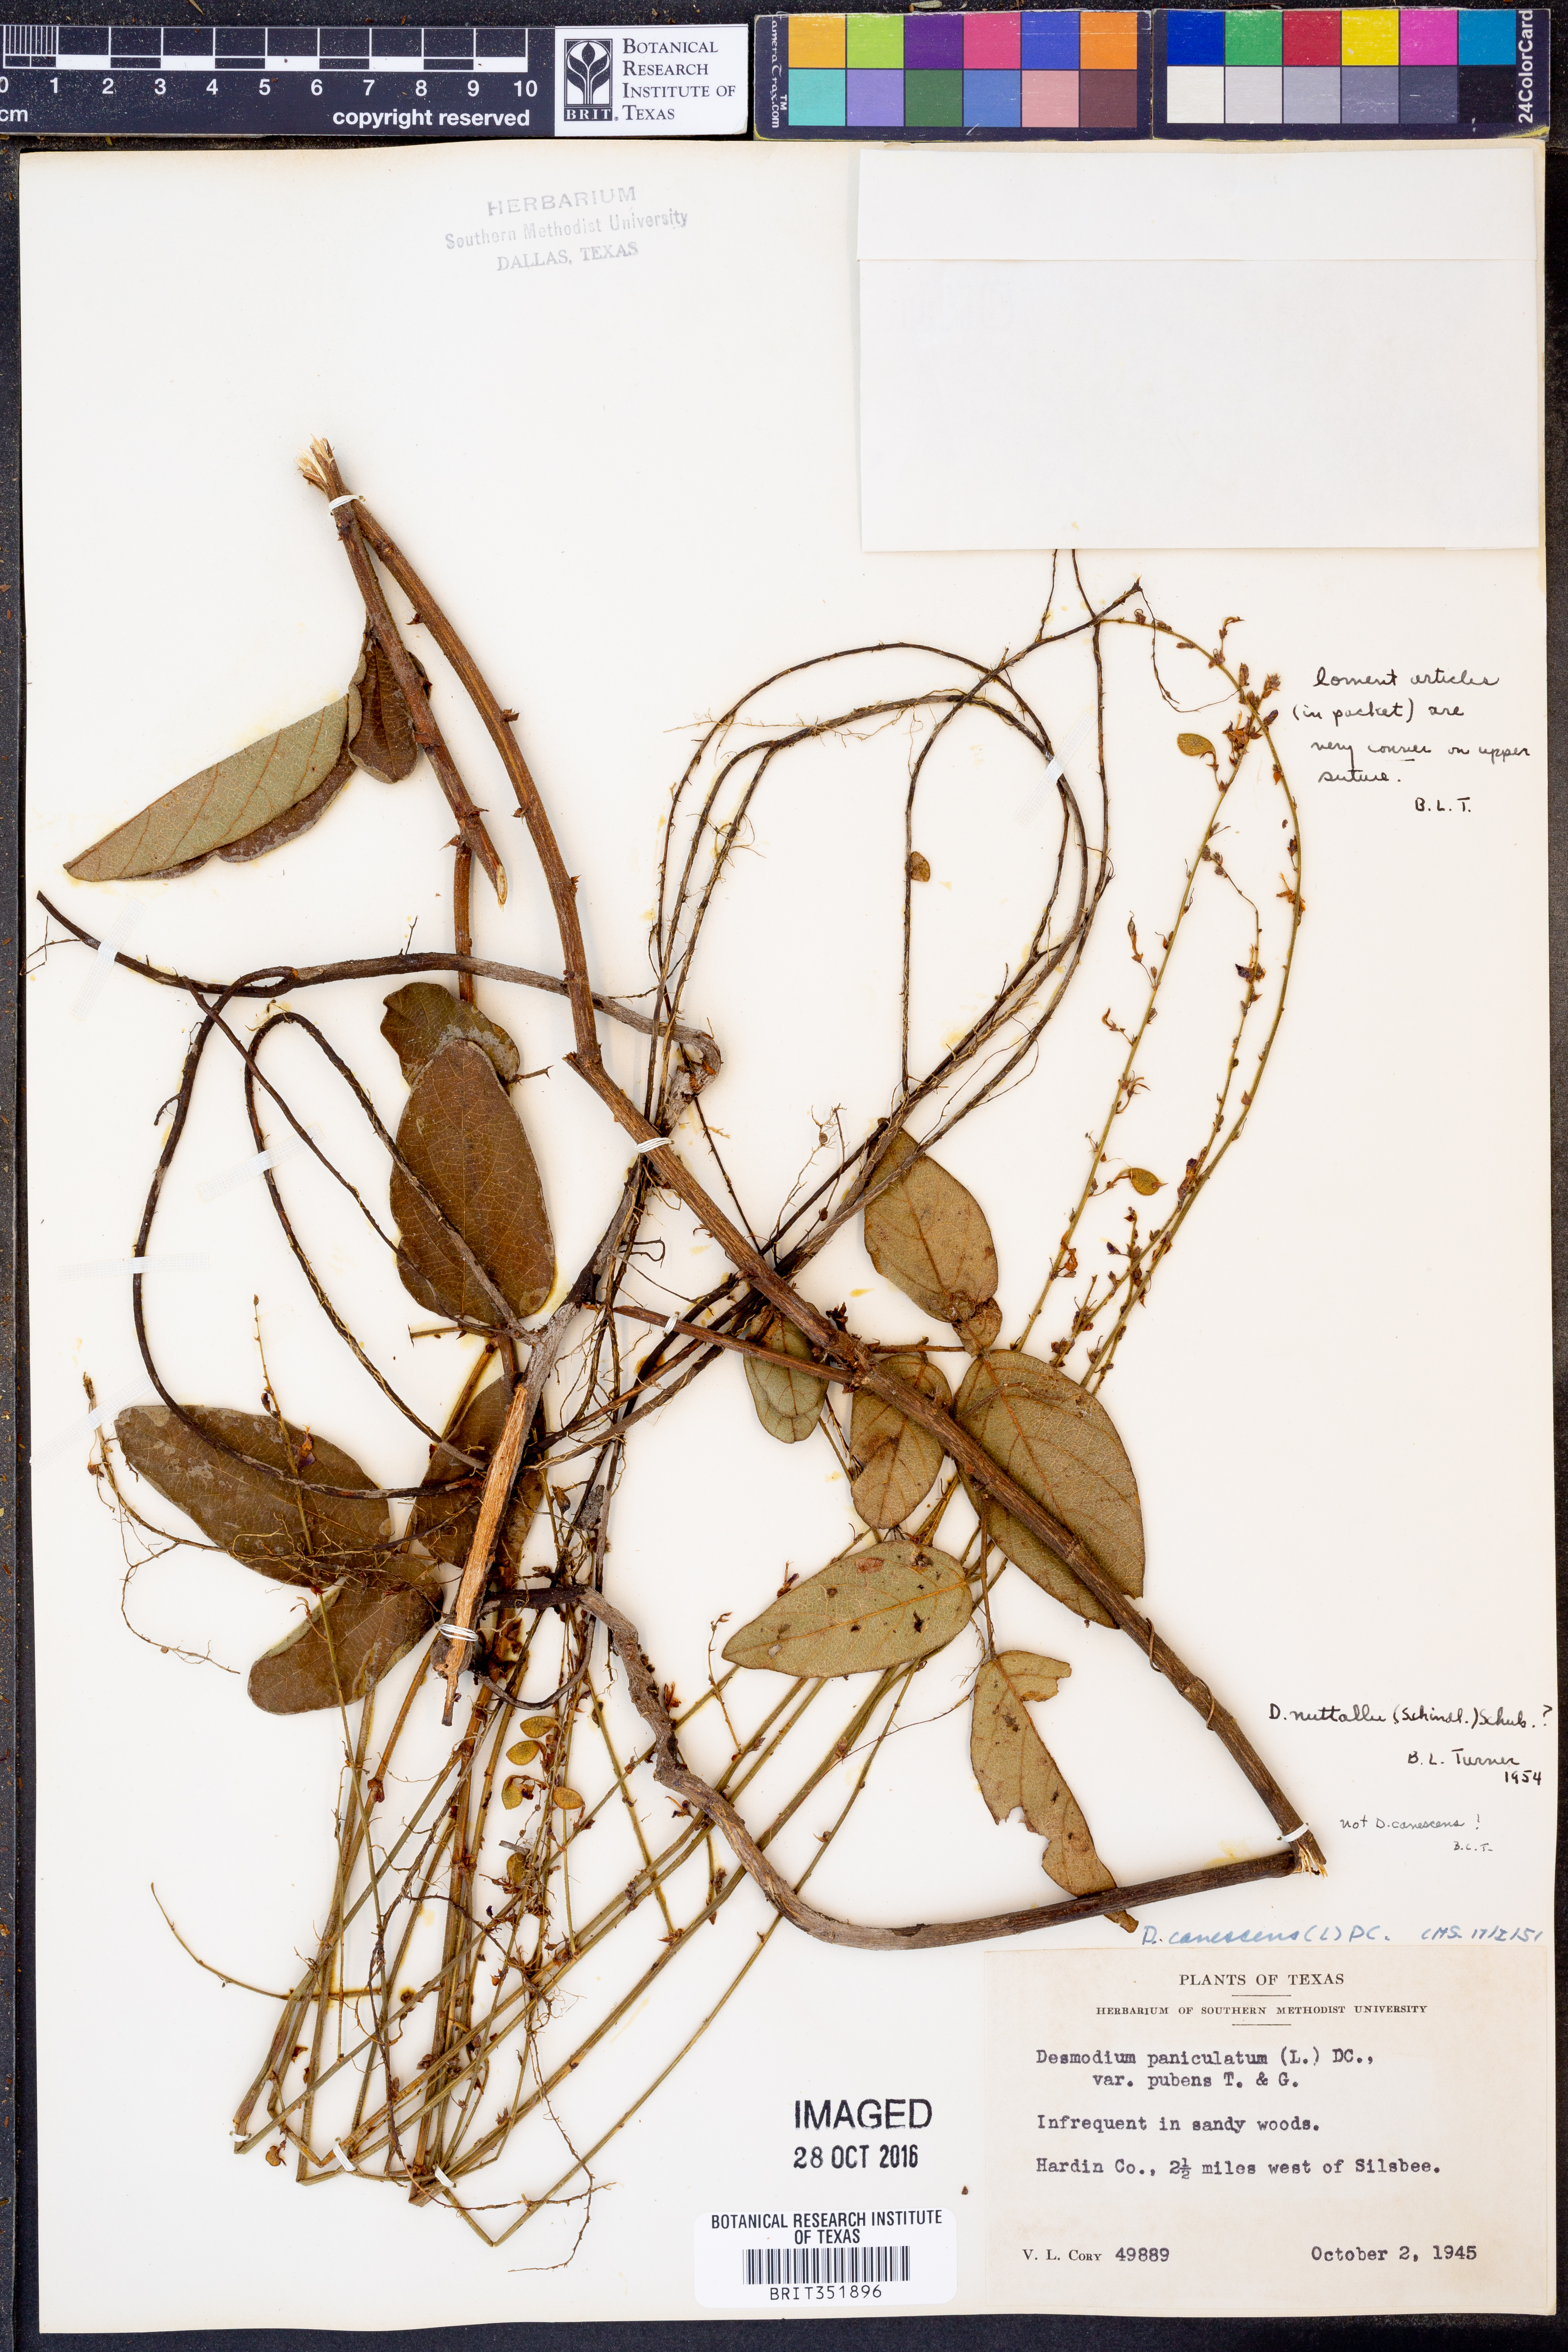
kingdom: Plantae
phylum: Tracheophyta
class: Magnoliopsida
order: Fabales
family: Fabaceae
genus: Desmodium
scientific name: Desmodium nuttallii
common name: Nuttall's tick trefoil
